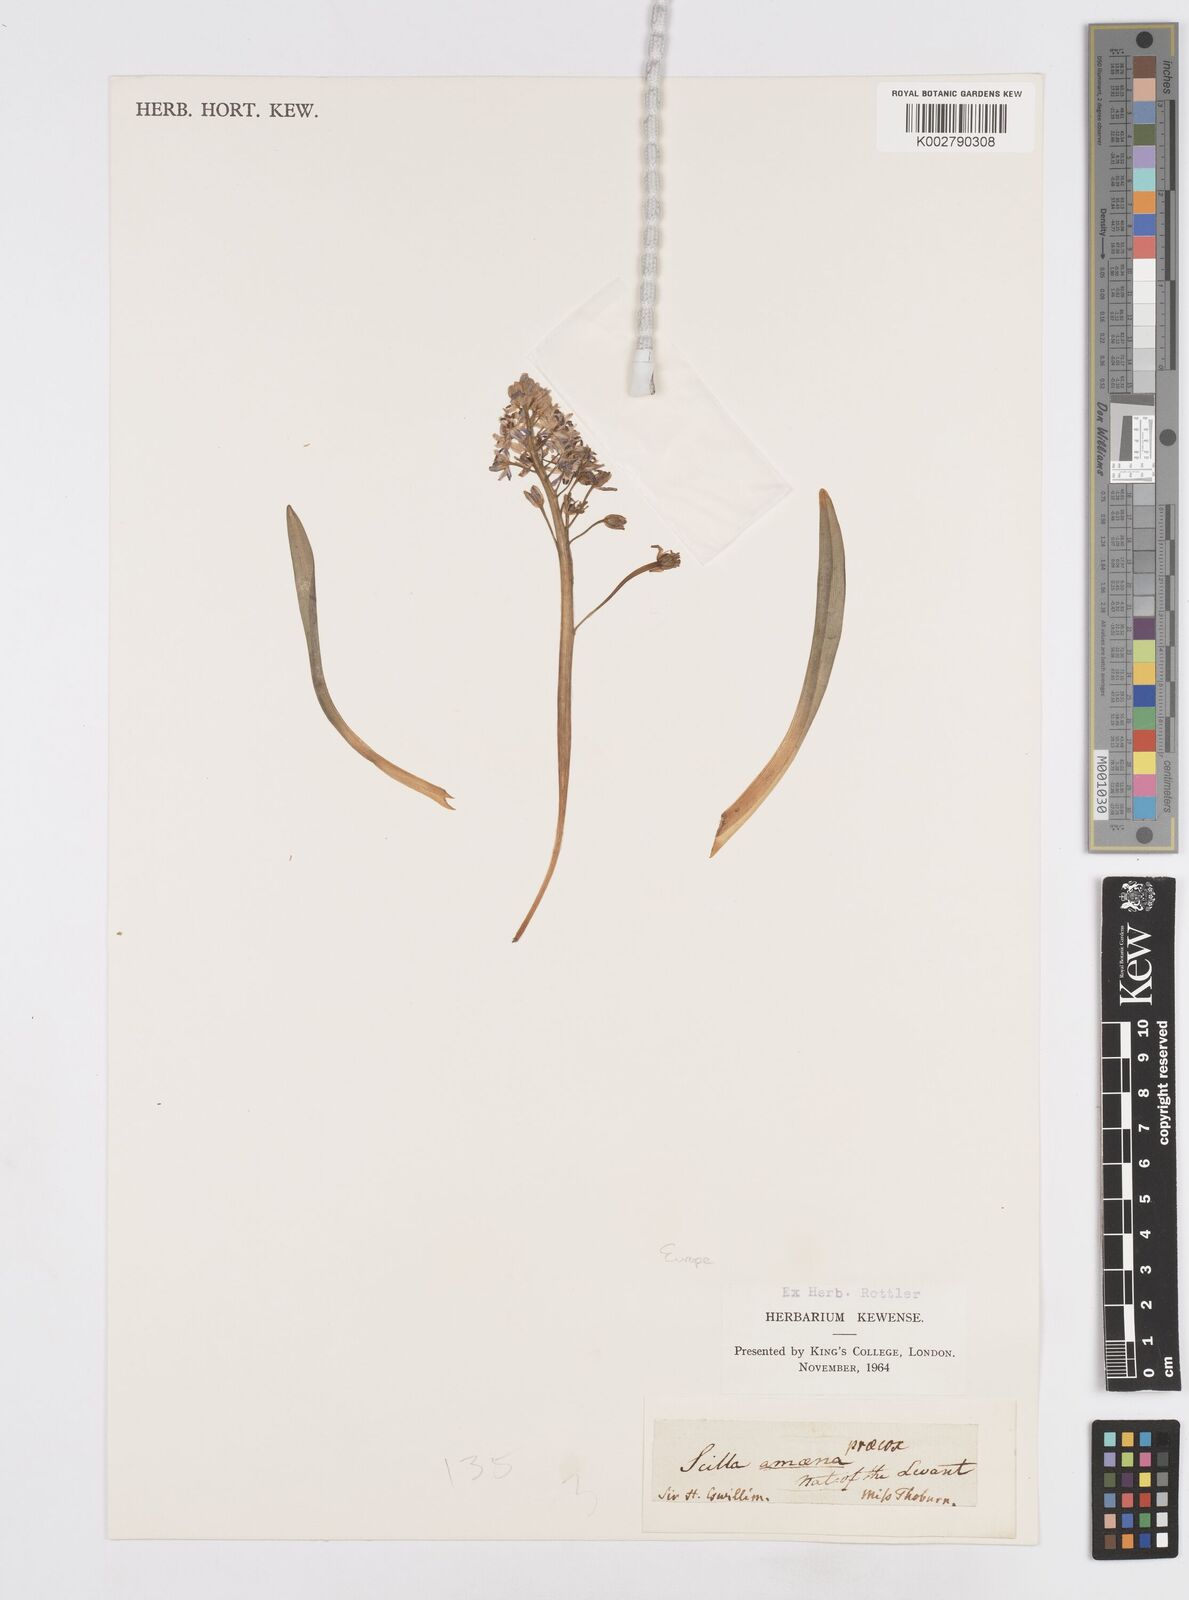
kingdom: Plantae
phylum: Tracheophyta
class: Liliopsida
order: Asparagales
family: Asparagaceae
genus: Scilla
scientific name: Scilla amoena
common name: Star-hyacinth
